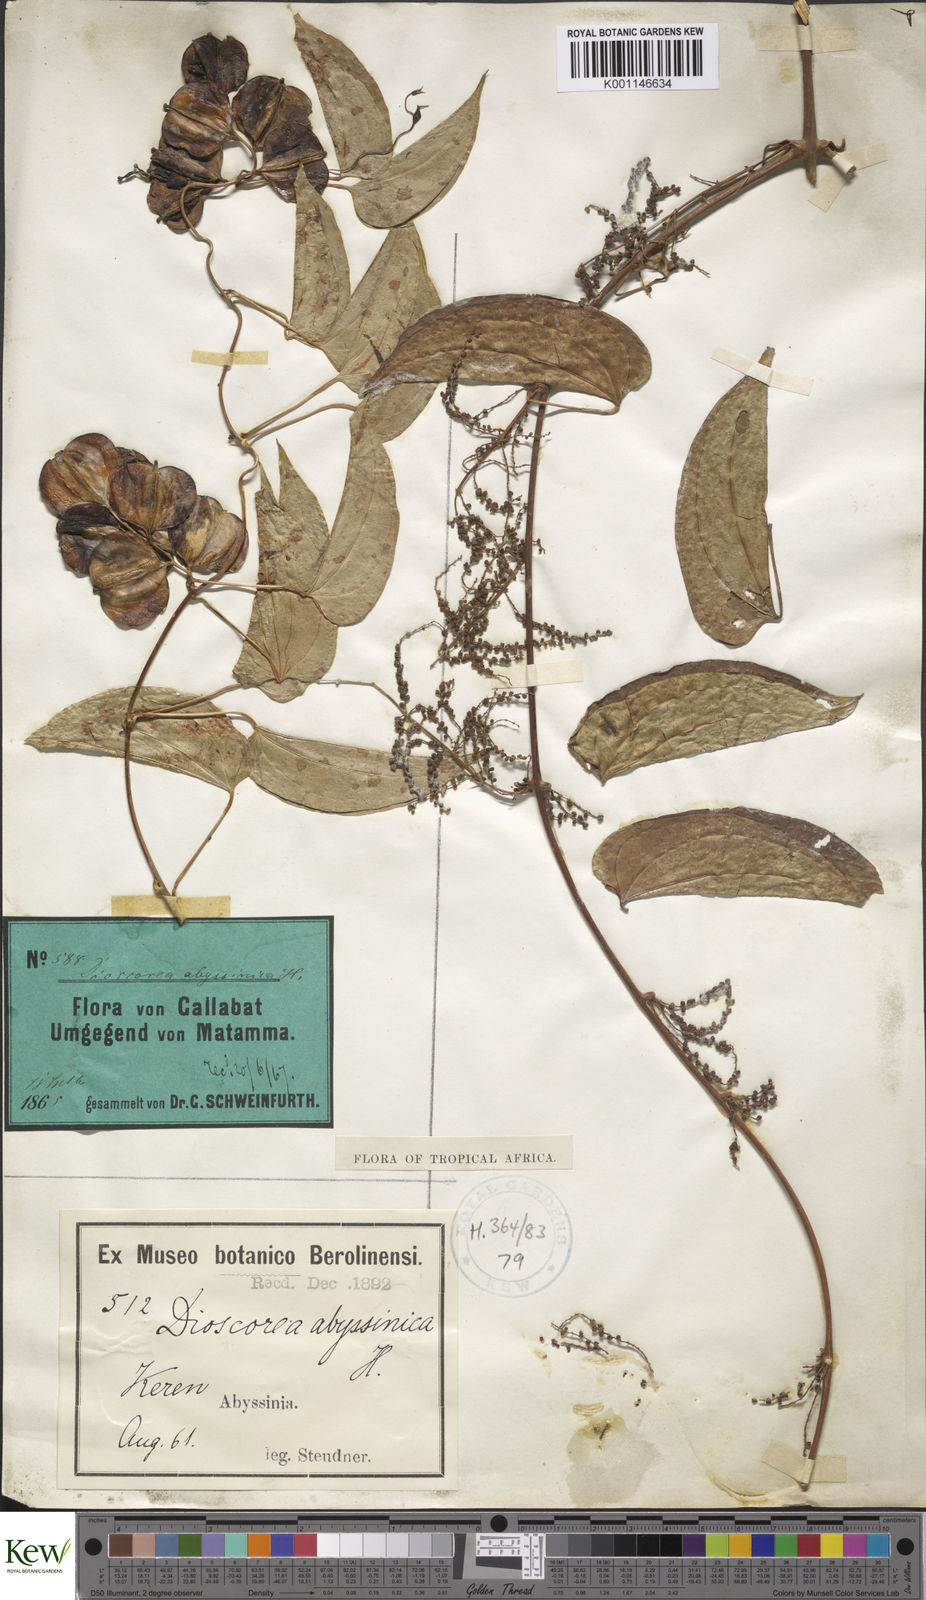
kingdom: Plantae
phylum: Tracheophyta
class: Liliopsida
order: Dioscoreales
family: Dioscoreaceae
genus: Dioscorea
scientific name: Dioscorea abyssinica
